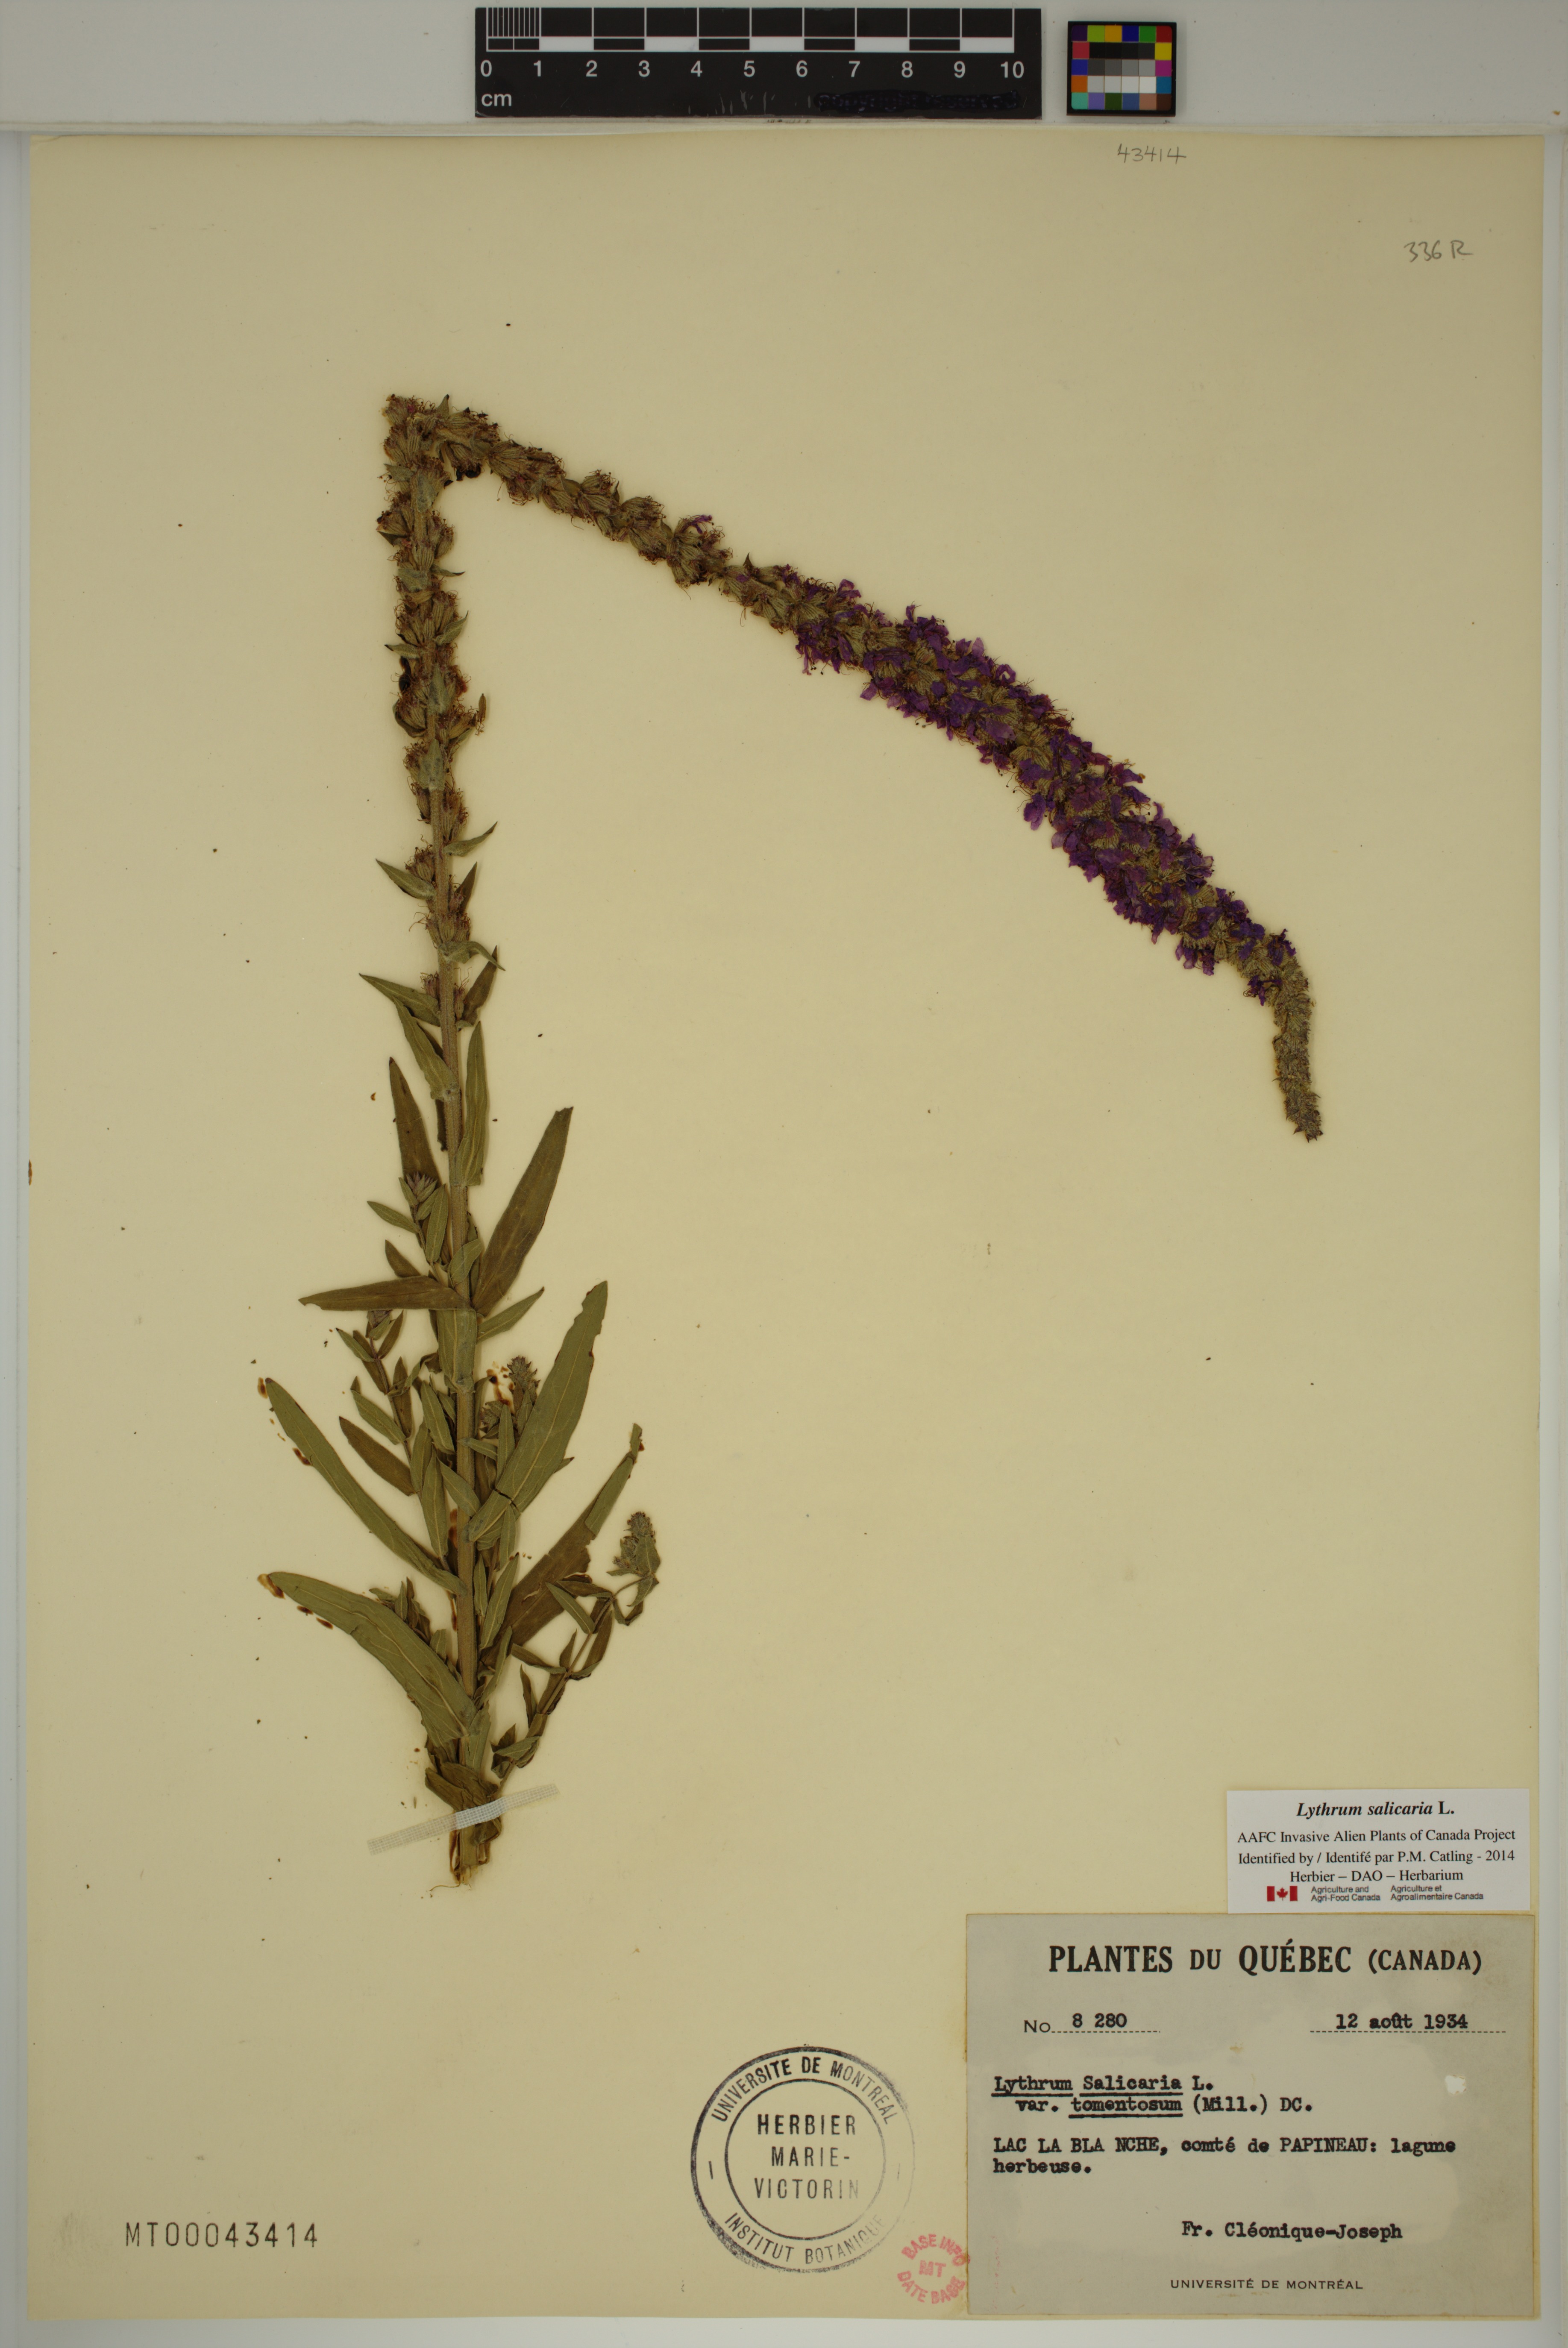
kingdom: Plantae
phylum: Tracheophyta
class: Magnoliopsida
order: Myrtales
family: Lythraceae
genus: Lythrum
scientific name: Lythrum salicaria
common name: Purple loosestrife
